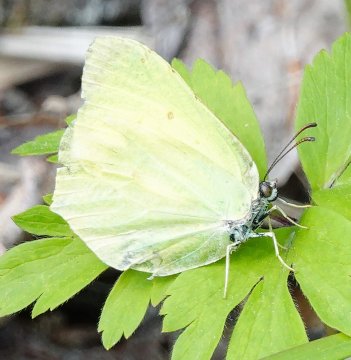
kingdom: Animalia
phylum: Arthropoda
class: Insecta
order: Lepidoptera
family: Pieridae
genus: Gonepteryx
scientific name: Gonepteryx rhamni
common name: Common Brimstone
